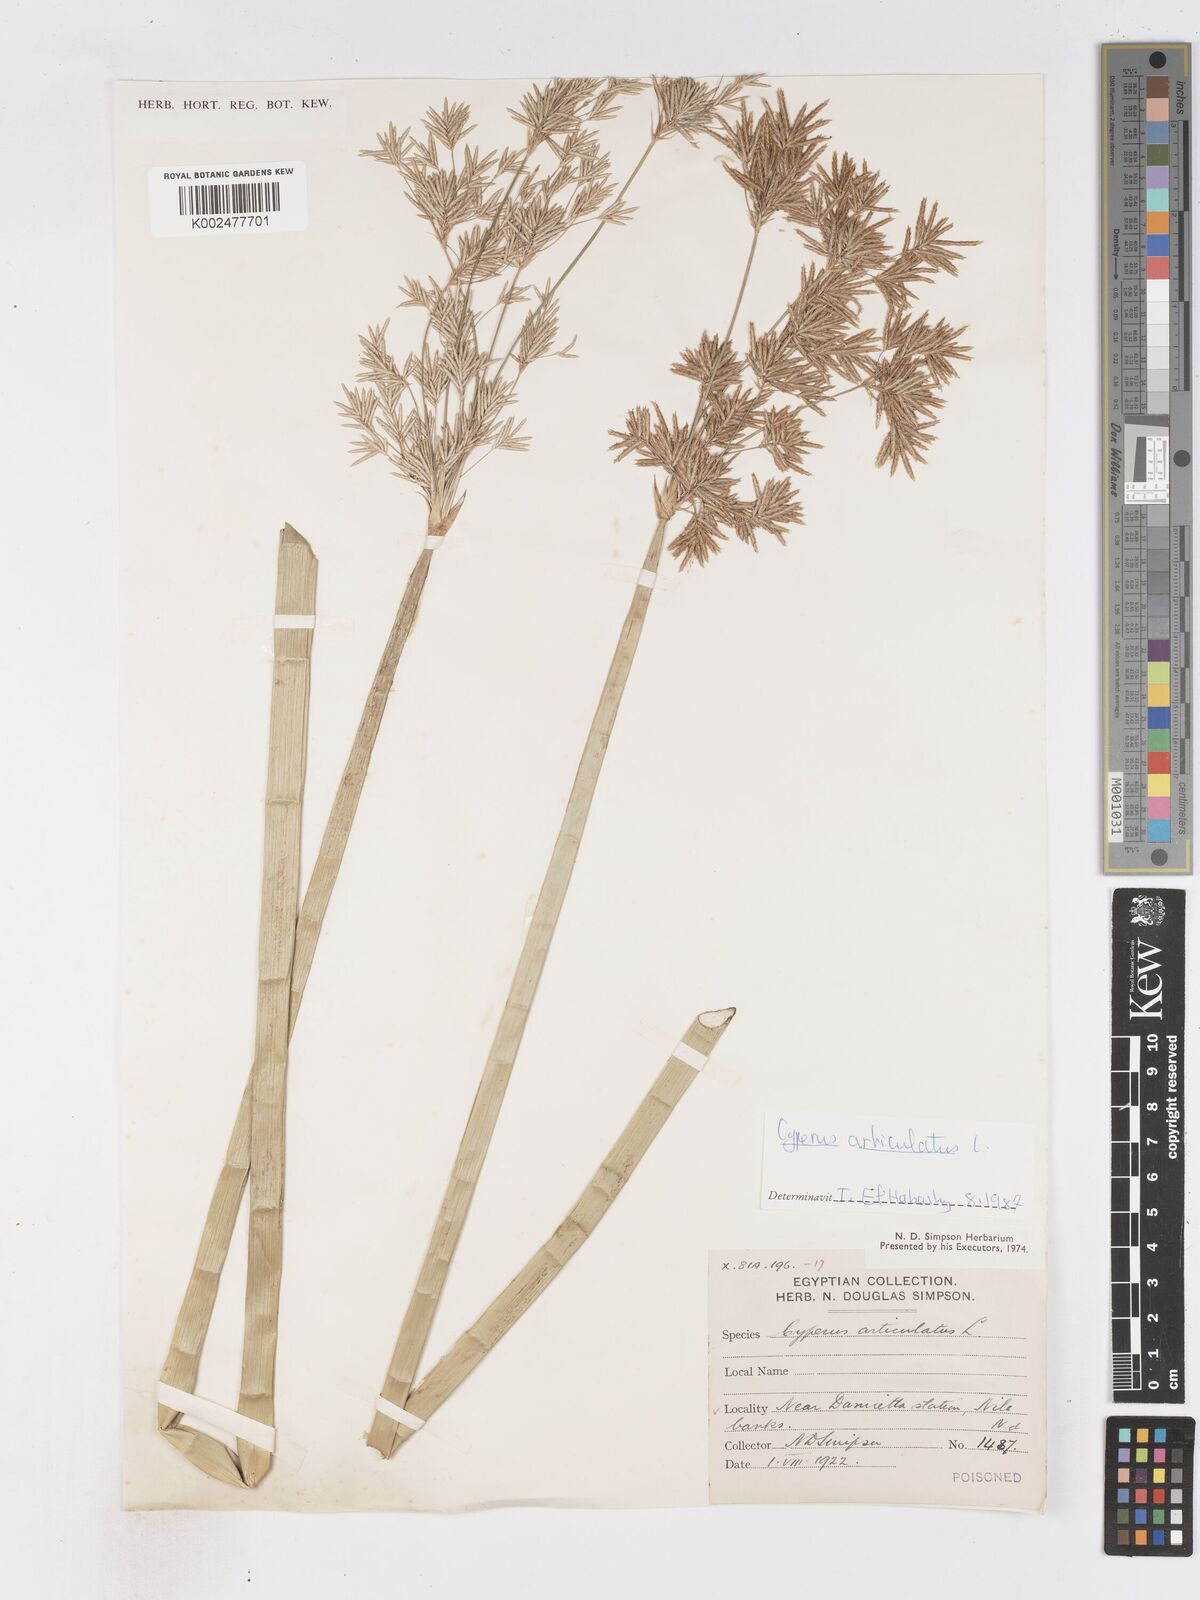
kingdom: Plantae
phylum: Tracheophyta
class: Liliopsida
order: Poales
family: Cyperaceae
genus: Cyperus
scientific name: Cyperus articulatus
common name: Jointed flatsedge
